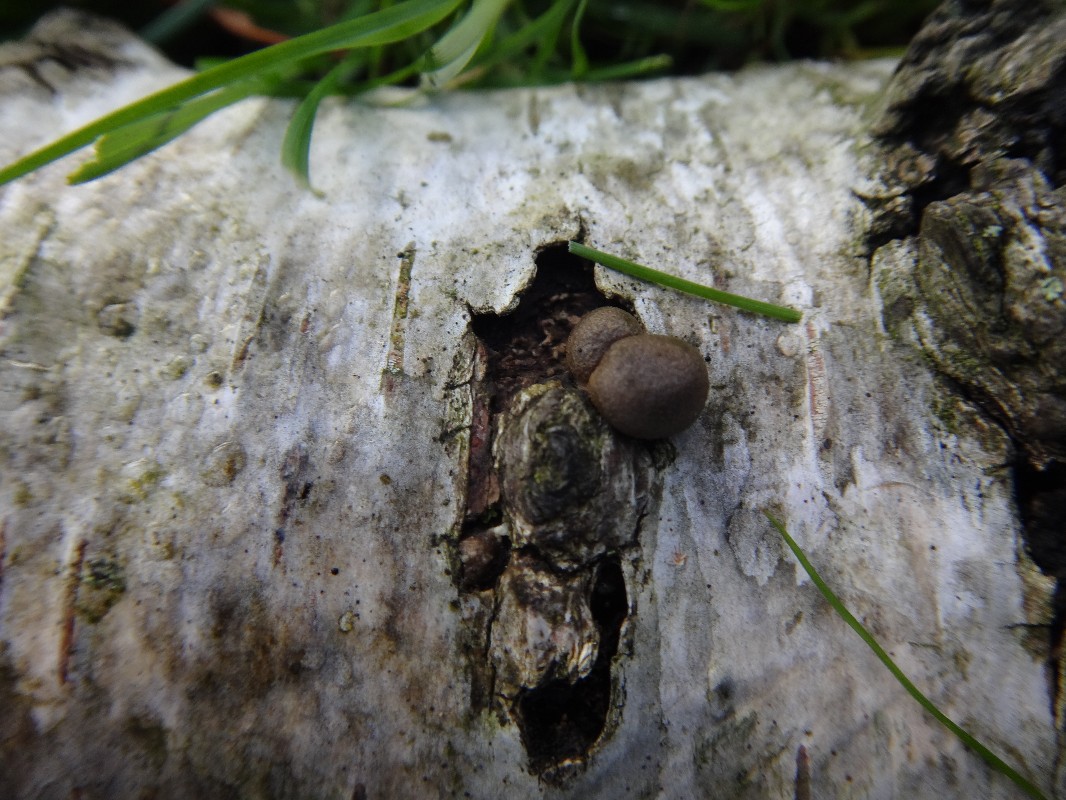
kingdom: Protozoa
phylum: Mycetozoa
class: Myxomycetes
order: Cribrariales
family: Tubiferaceae
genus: Lycogala
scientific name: Lycogala epidendrum
